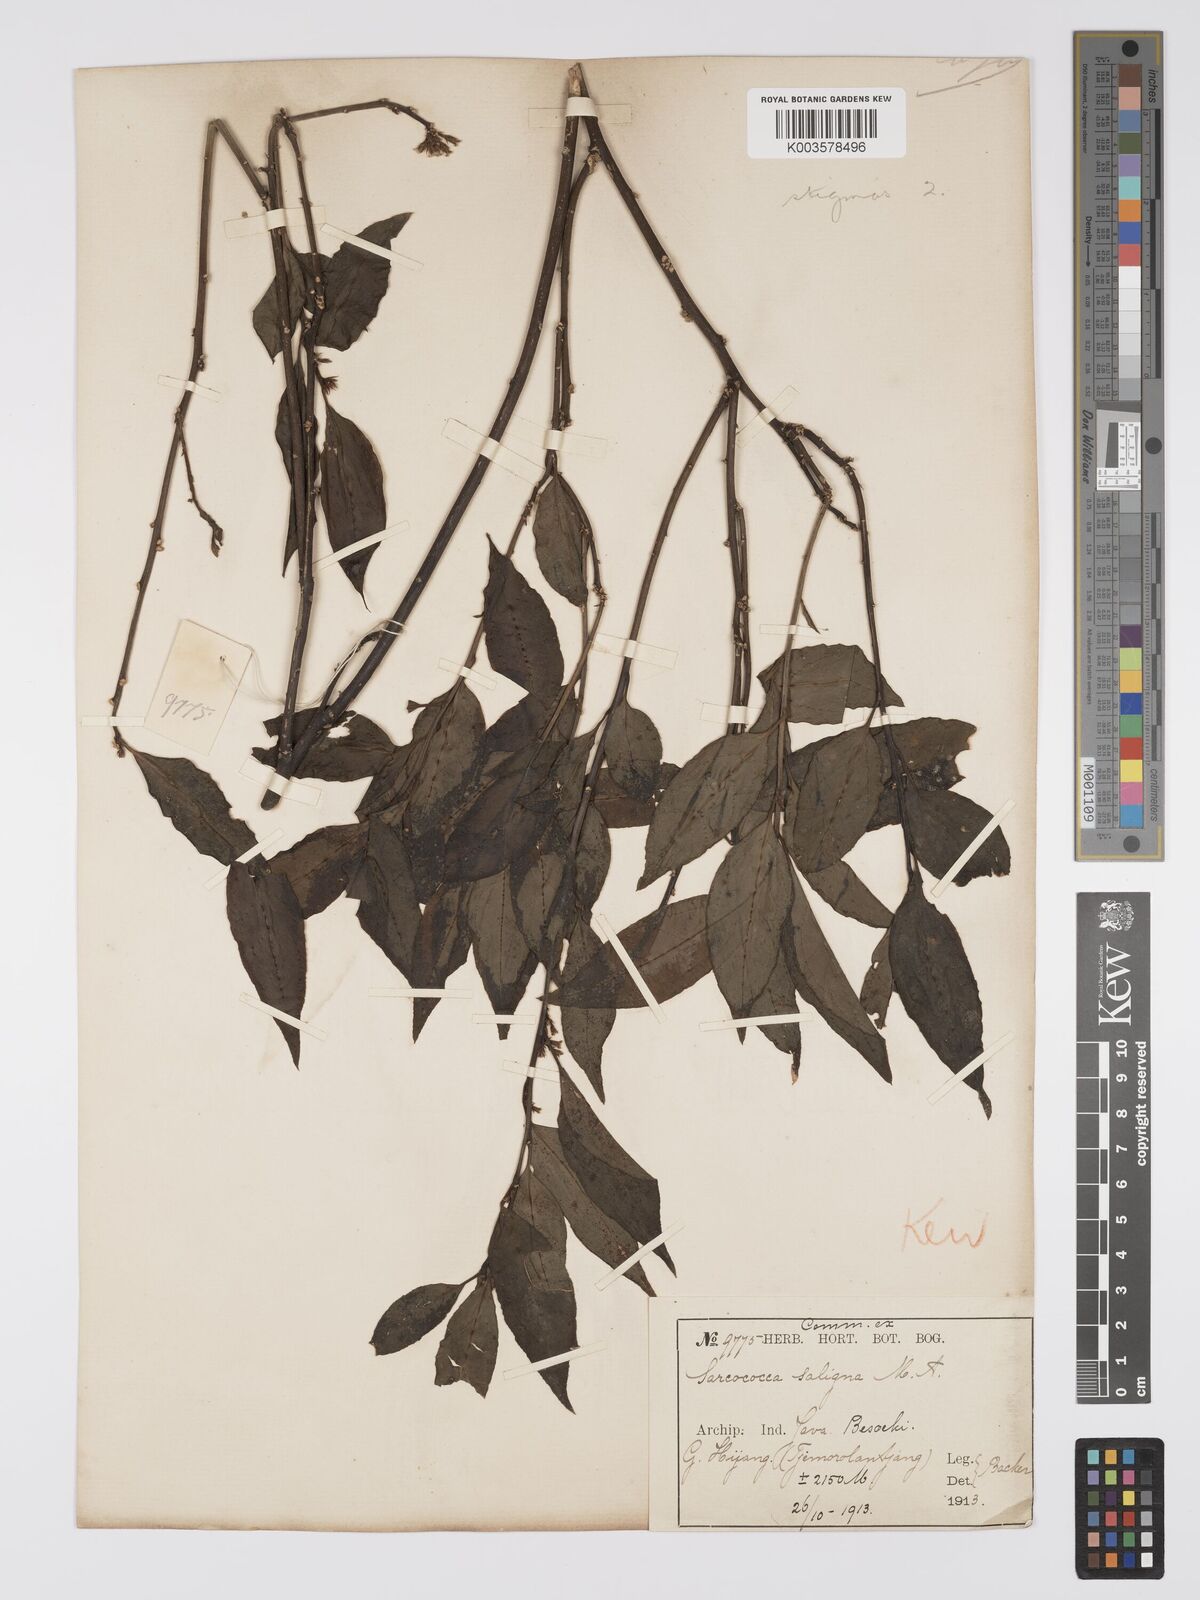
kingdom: Plantae
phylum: Tracheophyta
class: Magnoliopsida
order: Buxales
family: Buxaceae
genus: Sarcococca
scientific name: Sarcococca saligna
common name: Willow-leaf sweet-box
